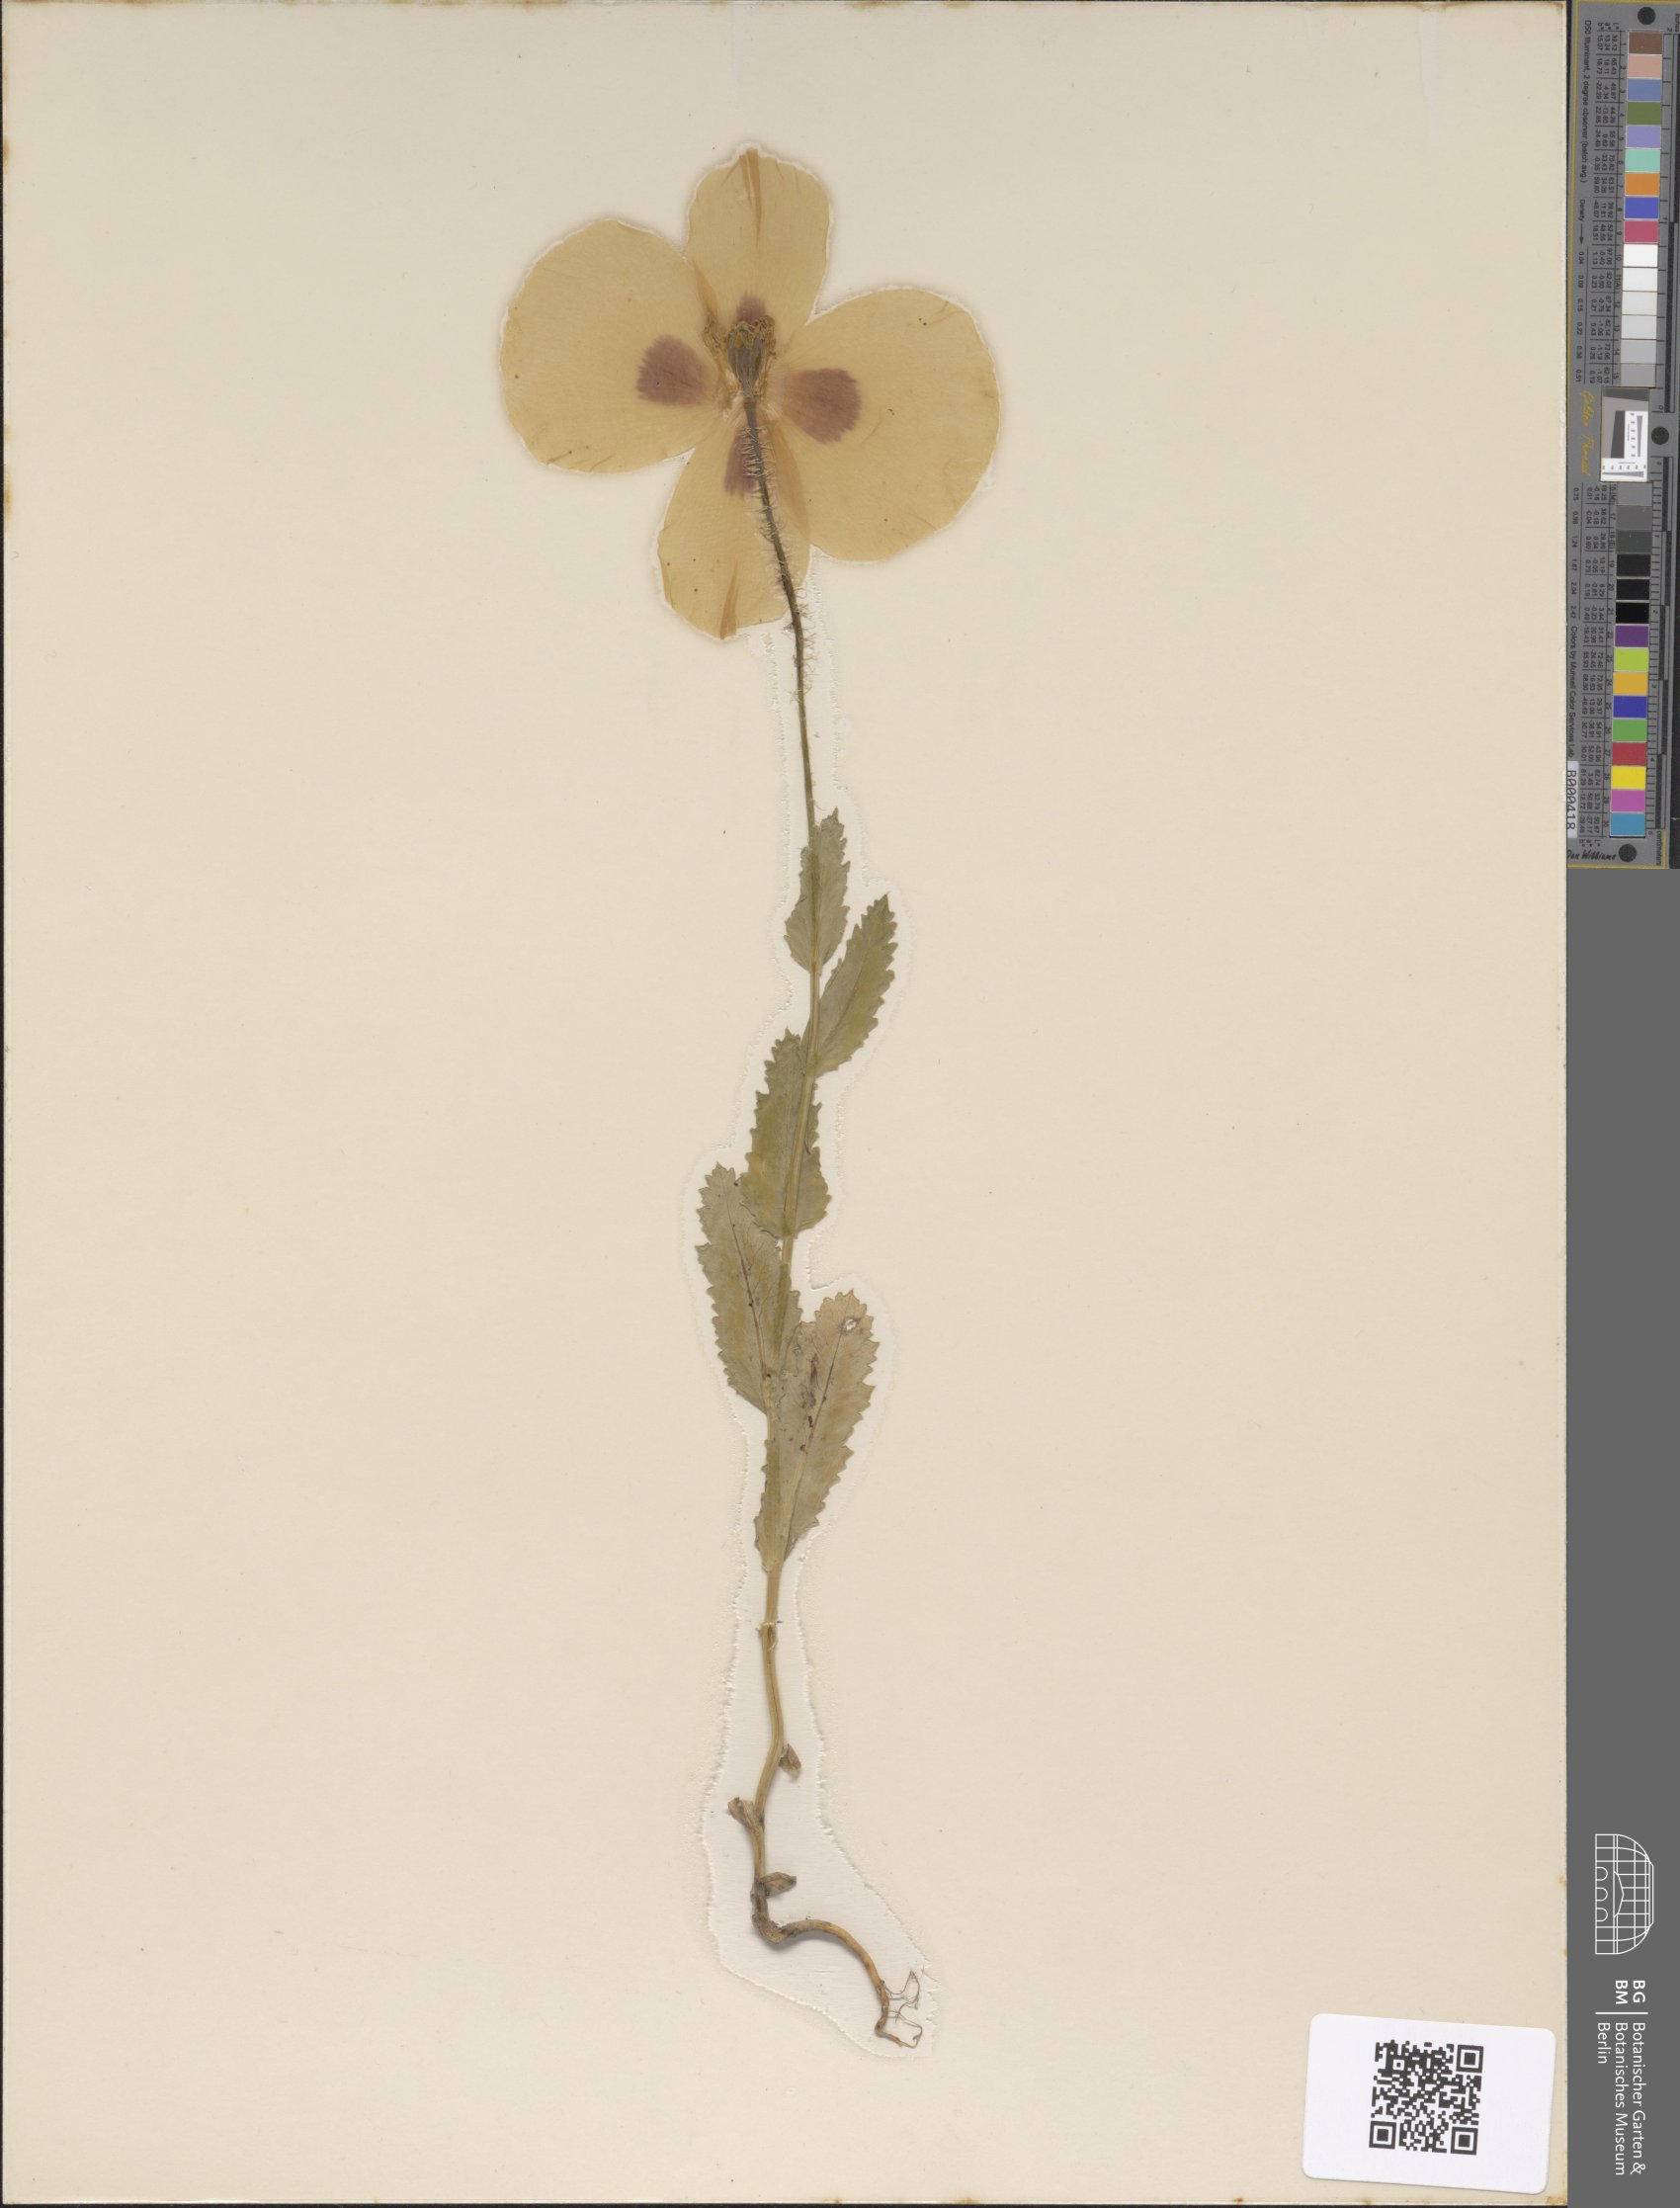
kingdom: Plantae
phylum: Tracheophyta
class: Magnoliopsida
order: Ranunculales
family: Papaveraceae
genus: Papaver
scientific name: Papaver somniferum
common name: Opium poppy
